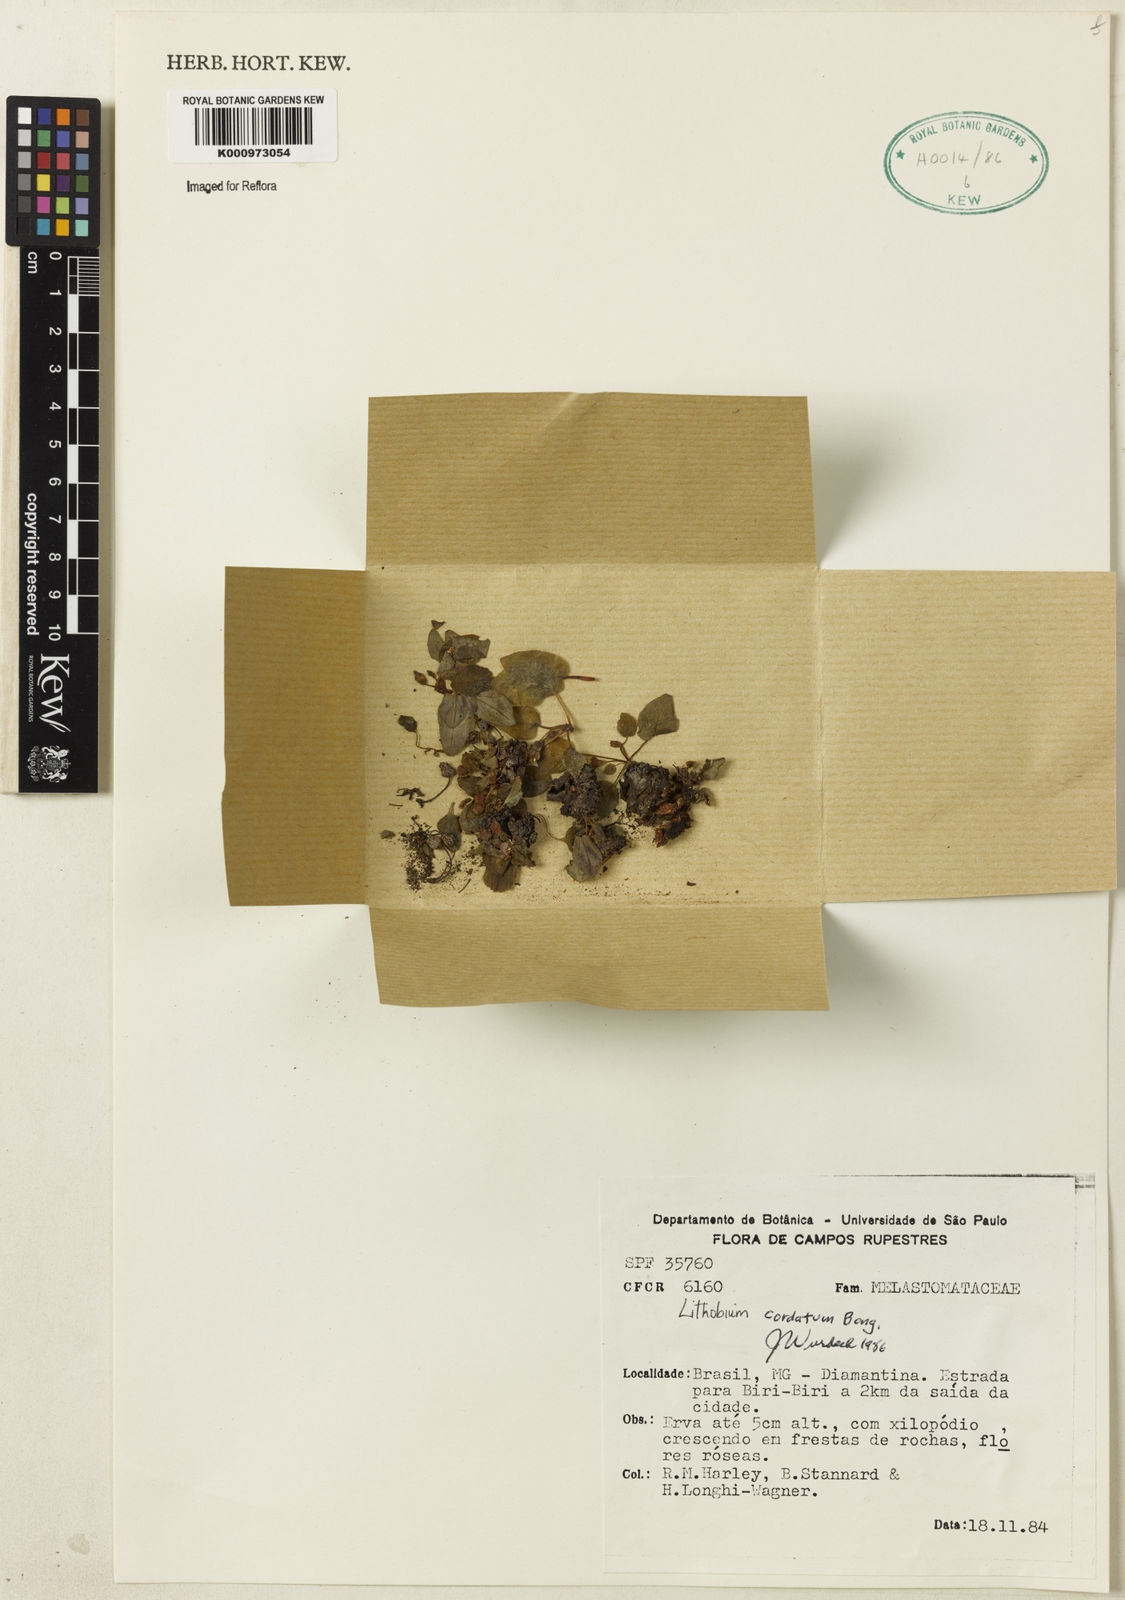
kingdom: Plantae
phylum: Tracheophyta
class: Magnoliopsida
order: Myrtales
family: Melastomataceae
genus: Lithobium
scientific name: Lithobium cordatum
